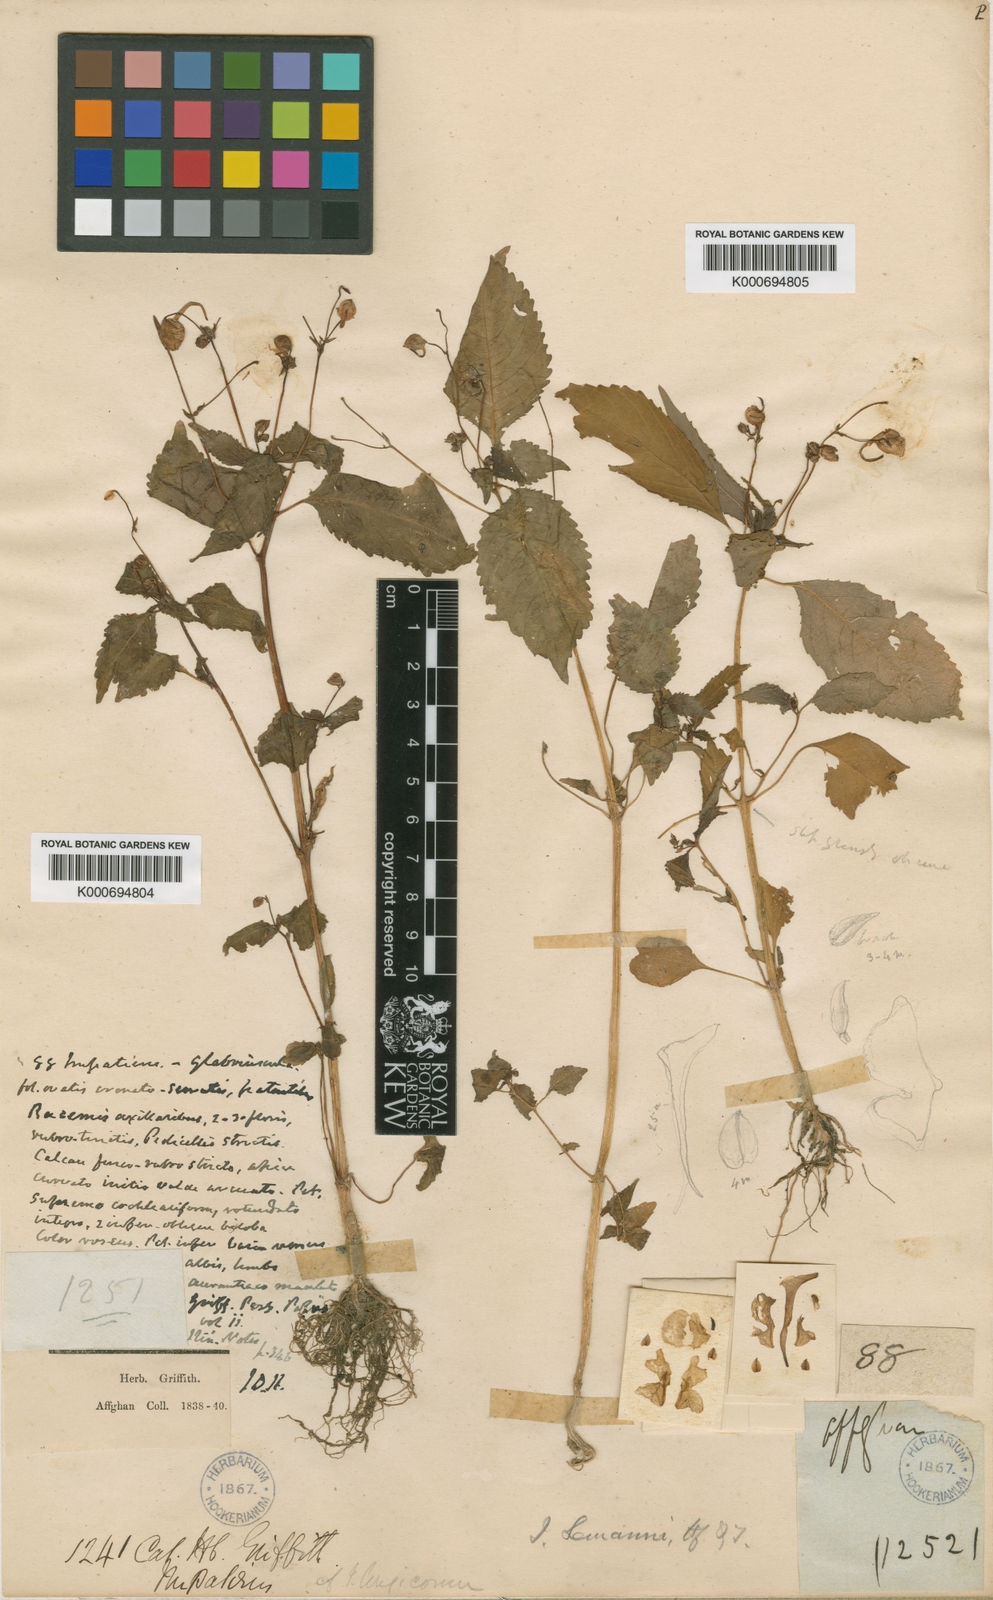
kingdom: Plantae
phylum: Tracheophyta
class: Magnoliopsida
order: Ericales
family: Balsaminaceae
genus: Impatiens
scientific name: Impatiens lemannii
